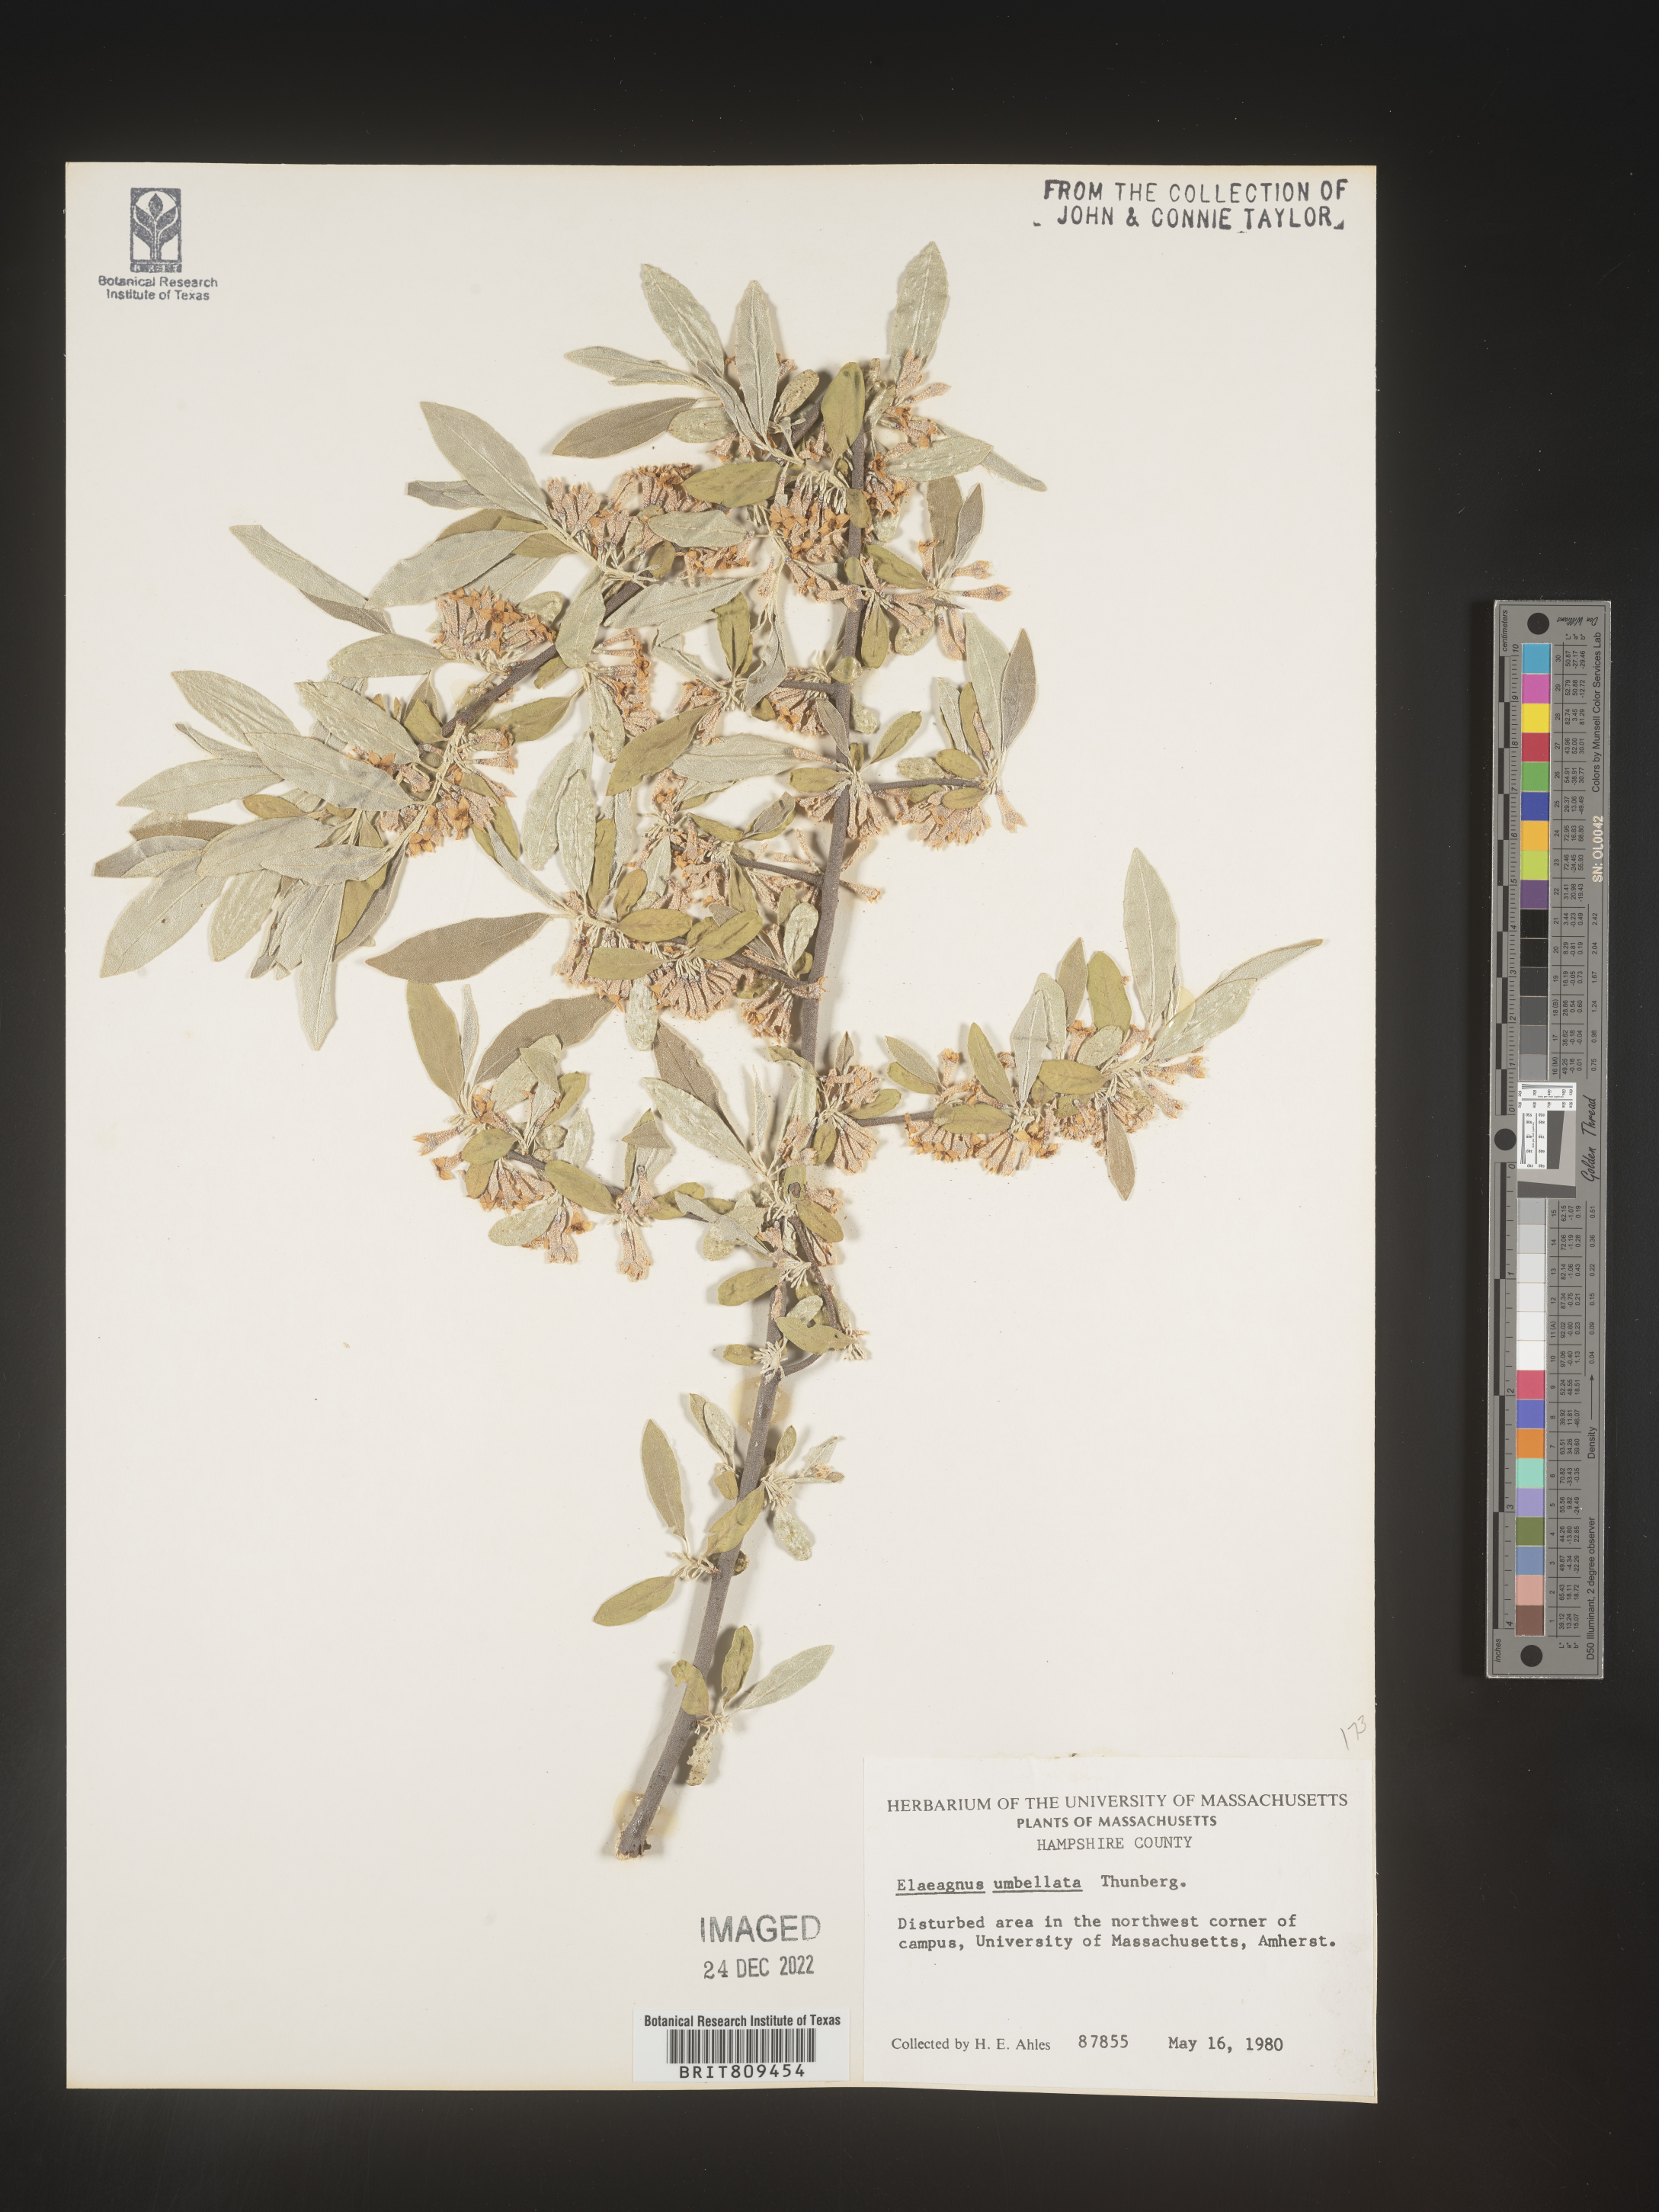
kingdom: Plantae
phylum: Tracheophyta
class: Magnoliopsida
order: Rosales
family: Elaeagnaceae
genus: Elaeagnus
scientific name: Elaeagnus
